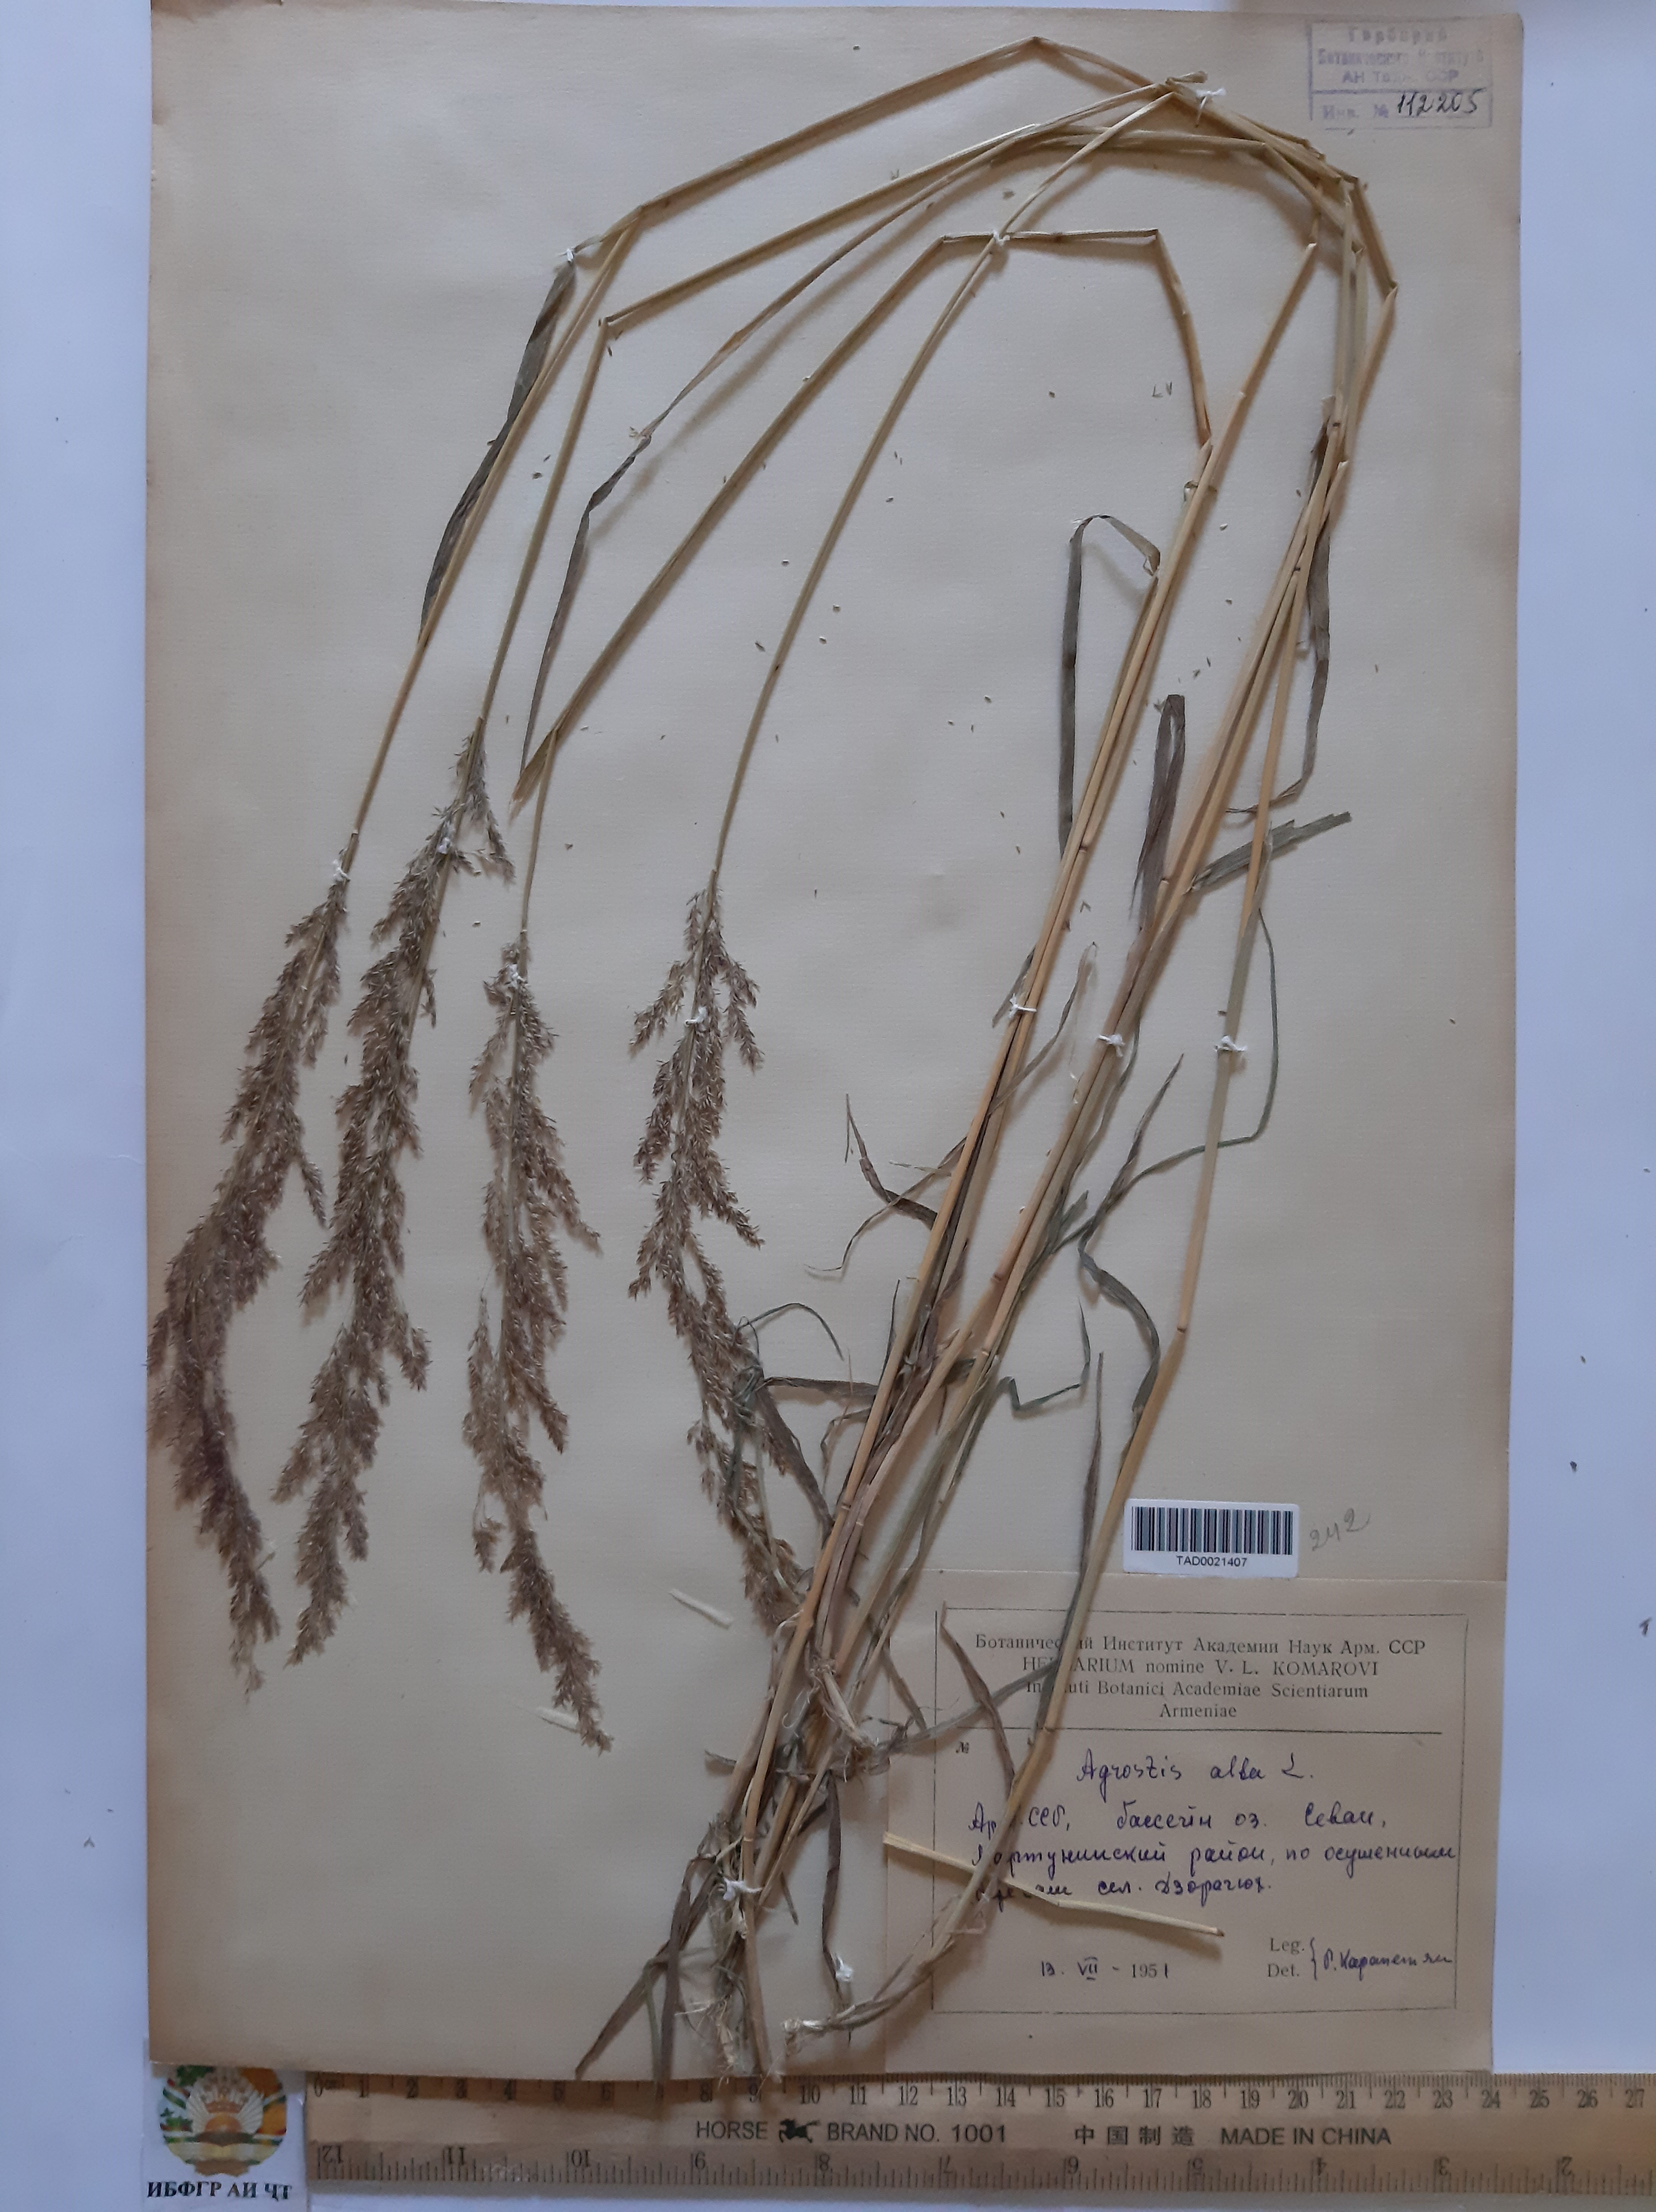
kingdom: Plantae
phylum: Tracheophyta
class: Liliopsida
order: Poales
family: Poaceae
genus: Poa
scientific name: Poa nemoralis
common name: Wood bluegrass
